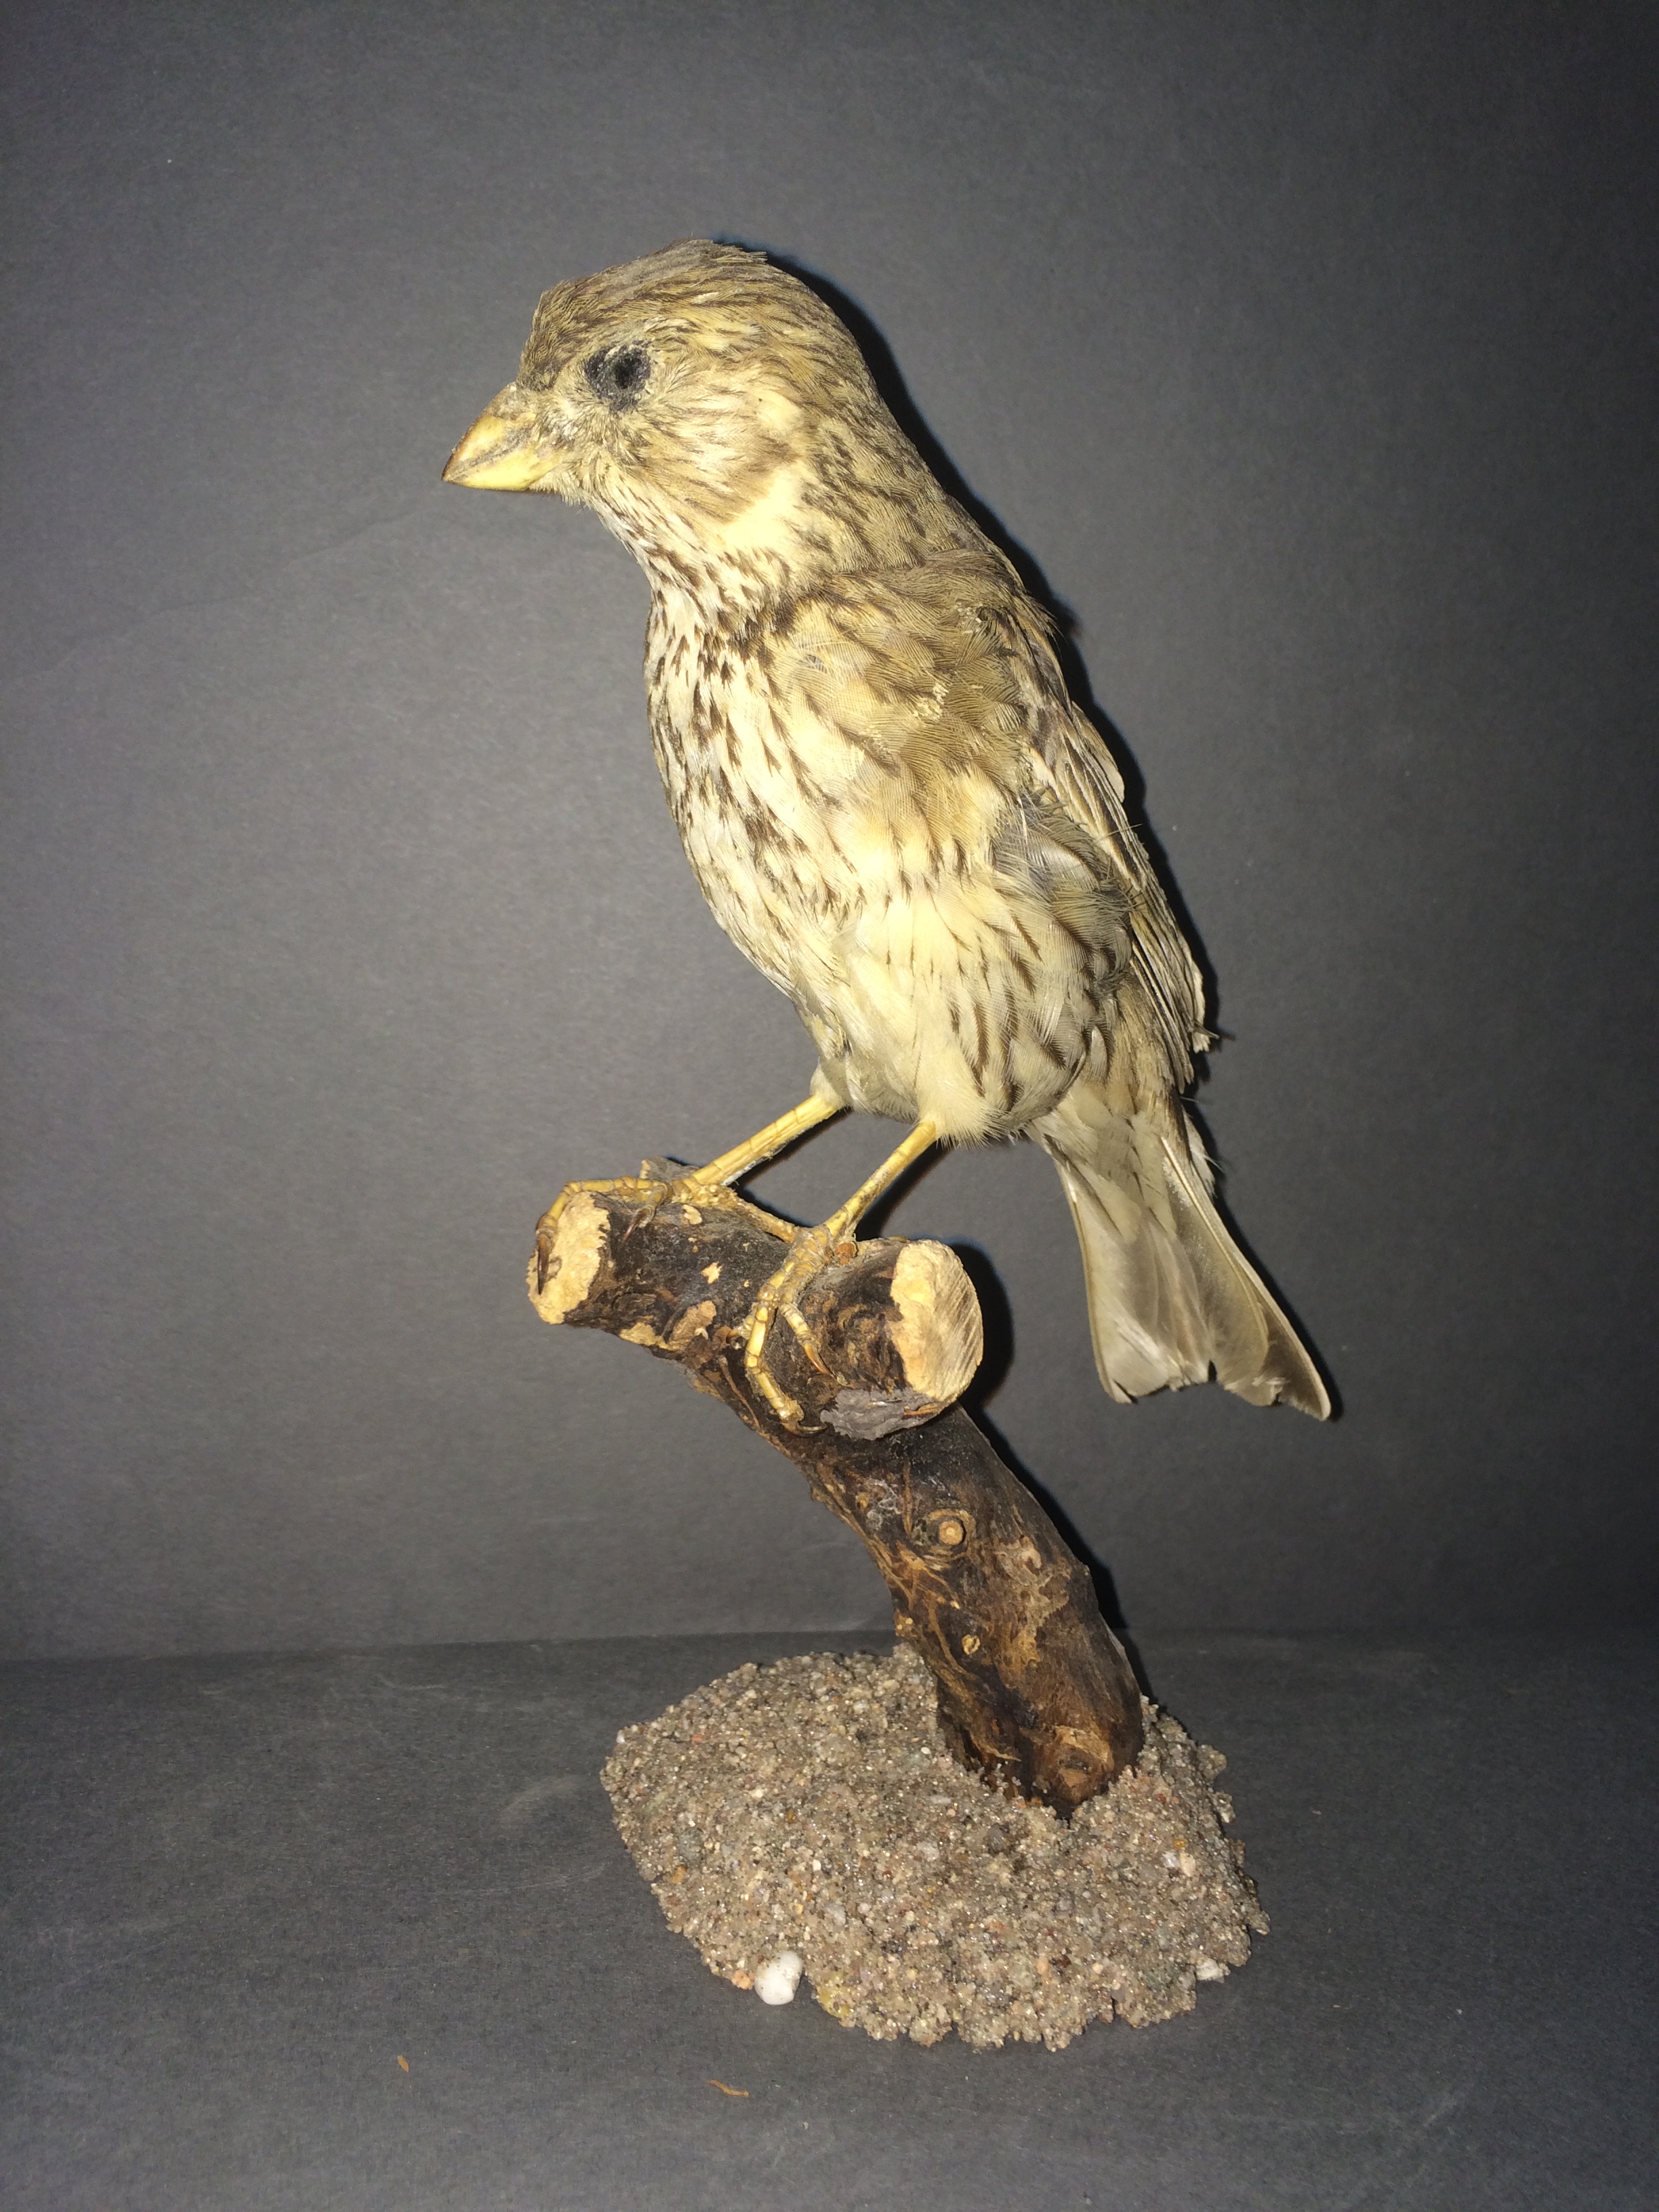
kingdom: Animalia
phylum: Chordata
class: Aves
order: Passeriformes
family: Emberizidae
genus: Emberiza
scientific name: Emberiza calandra
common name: Corn bunting
